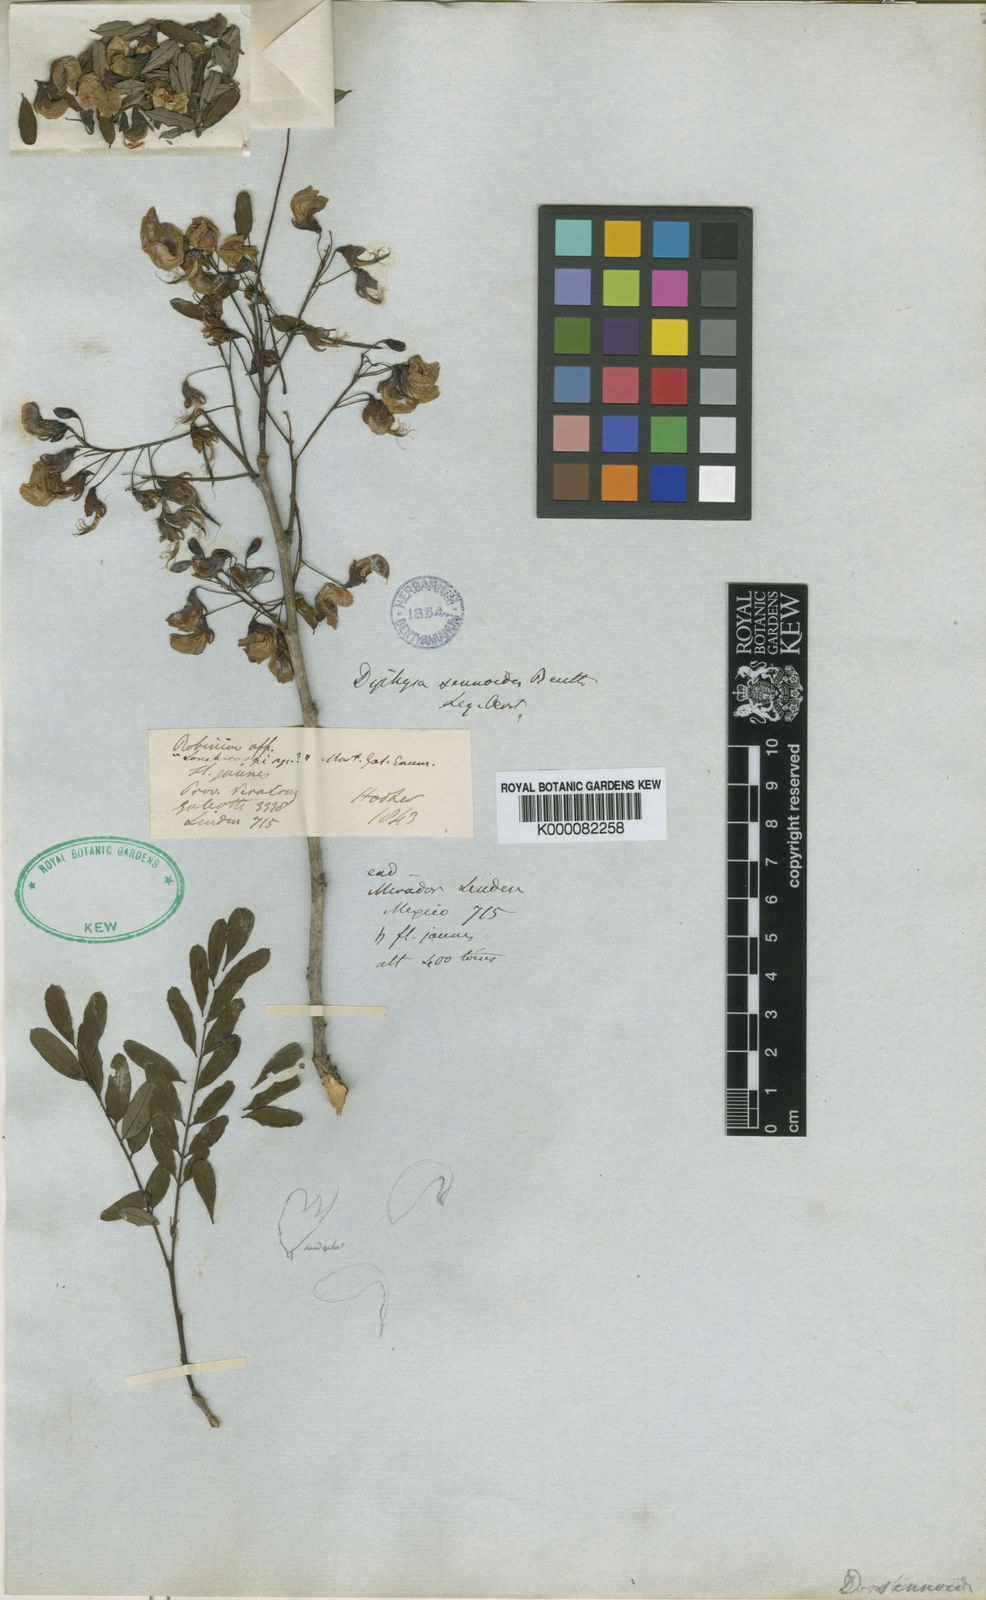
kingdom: Plantae
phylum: Tracheophyta
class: Magnoliopsida
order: Fabales
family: Fabaceae
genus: Diphysa
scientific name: Diphysa sennoides
